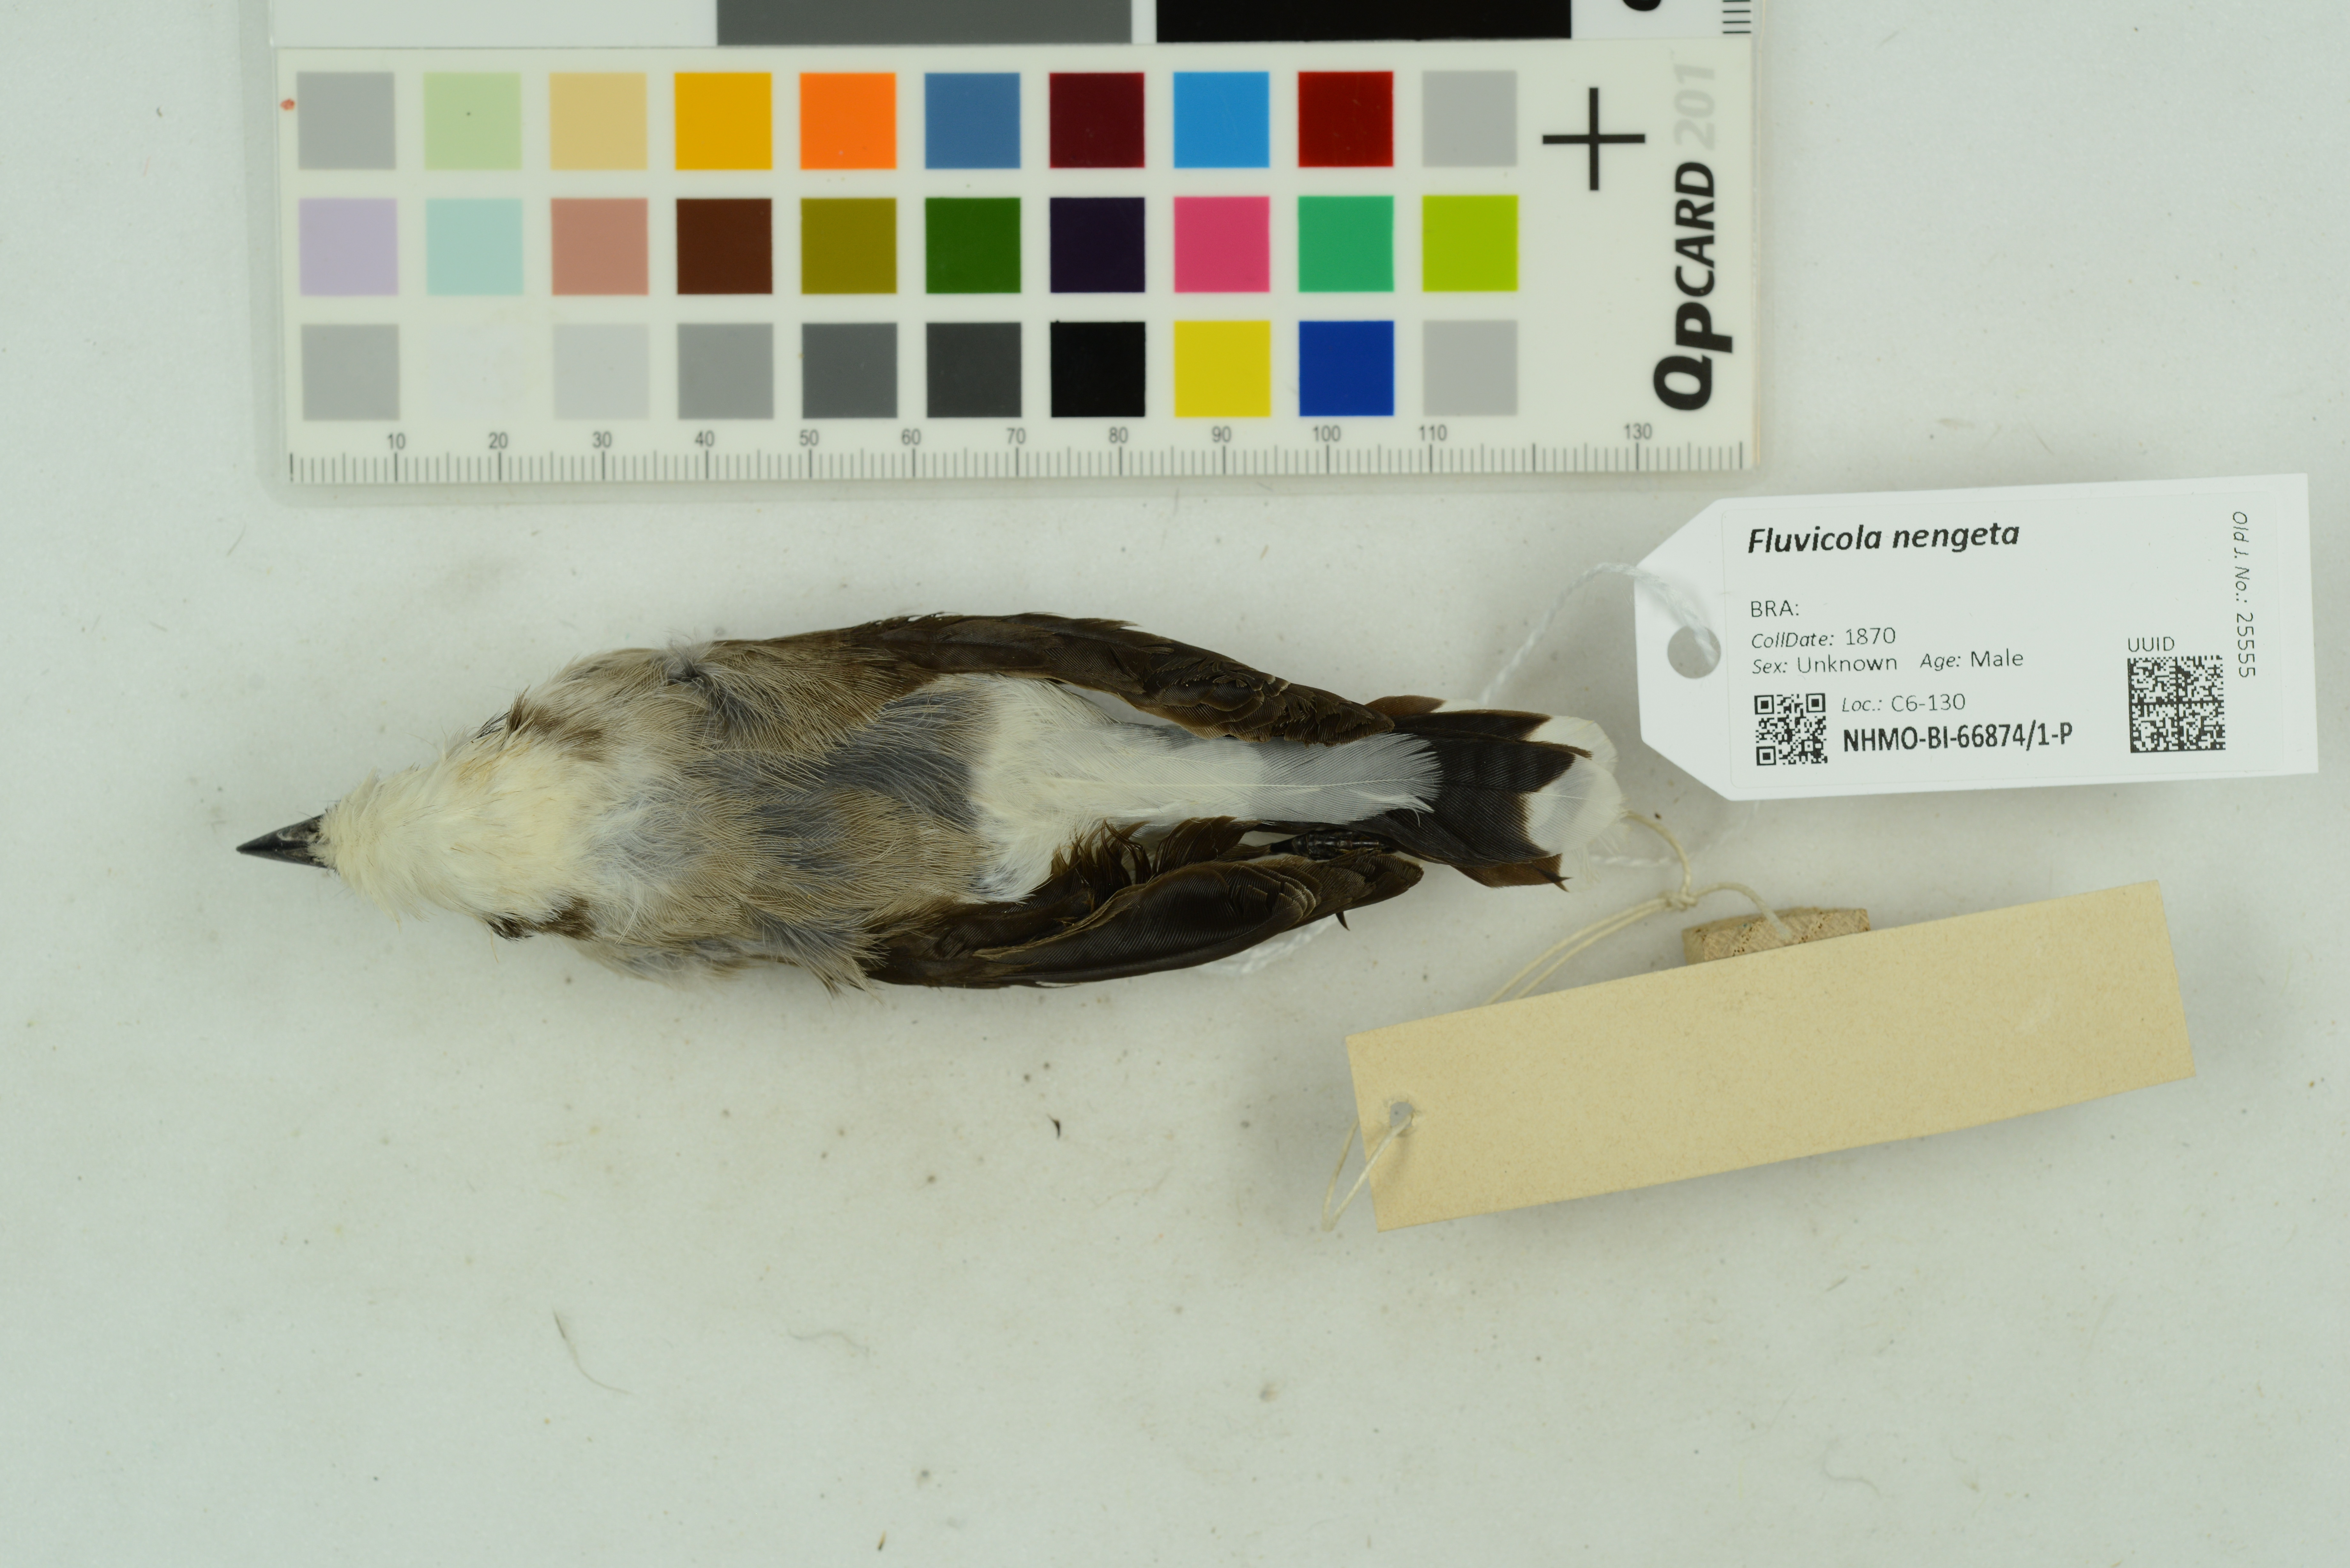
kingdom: Animalia
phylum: Chordata
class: Aves
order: Passeriformes
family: Tyrannidae
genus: Fluvicola
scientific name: Fluvicola nengeta
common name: Masked water tyrant
